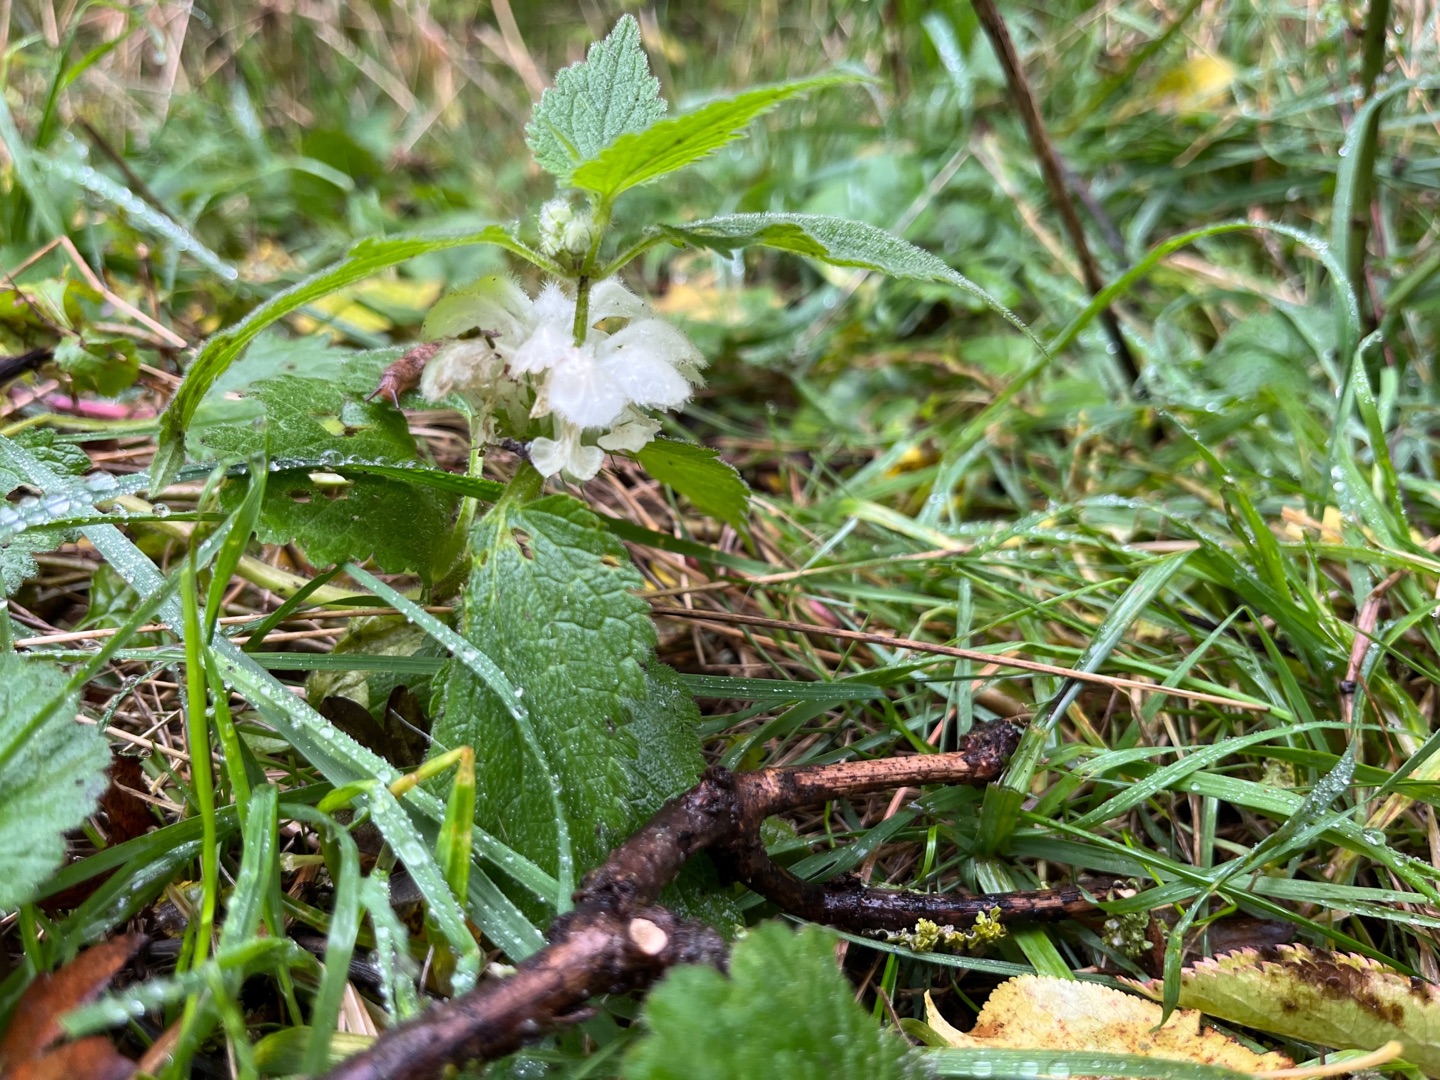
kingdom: Plantae
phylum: Tracheophyta
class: Magnoliopsida
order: Lamiales
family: Lamiaceae
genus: Lamium
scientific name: Lamium album
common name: Døvnælde
